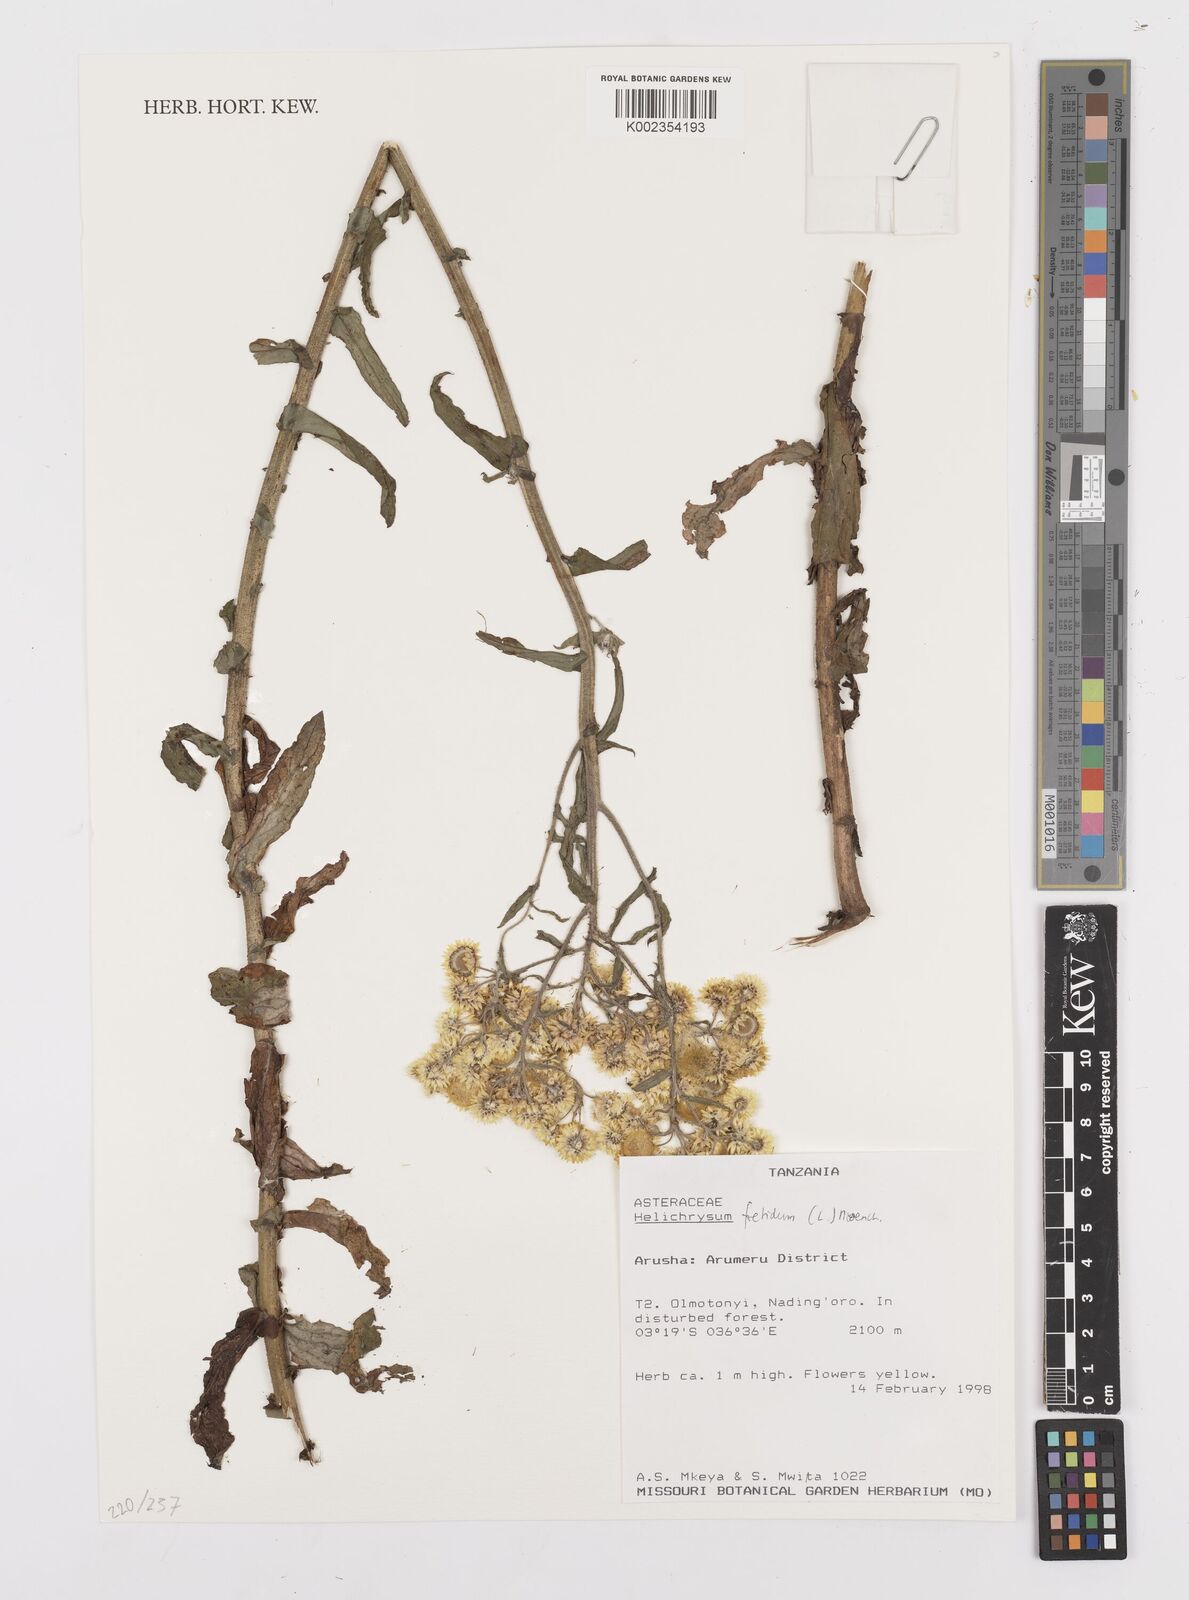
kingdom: Plantae
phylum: Tracheophyta
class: Magnoliopsida
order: Asterales
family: Asteraceae
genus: Helichrysum
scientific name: Helichrysum foetidum
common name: Stinking everlasting
